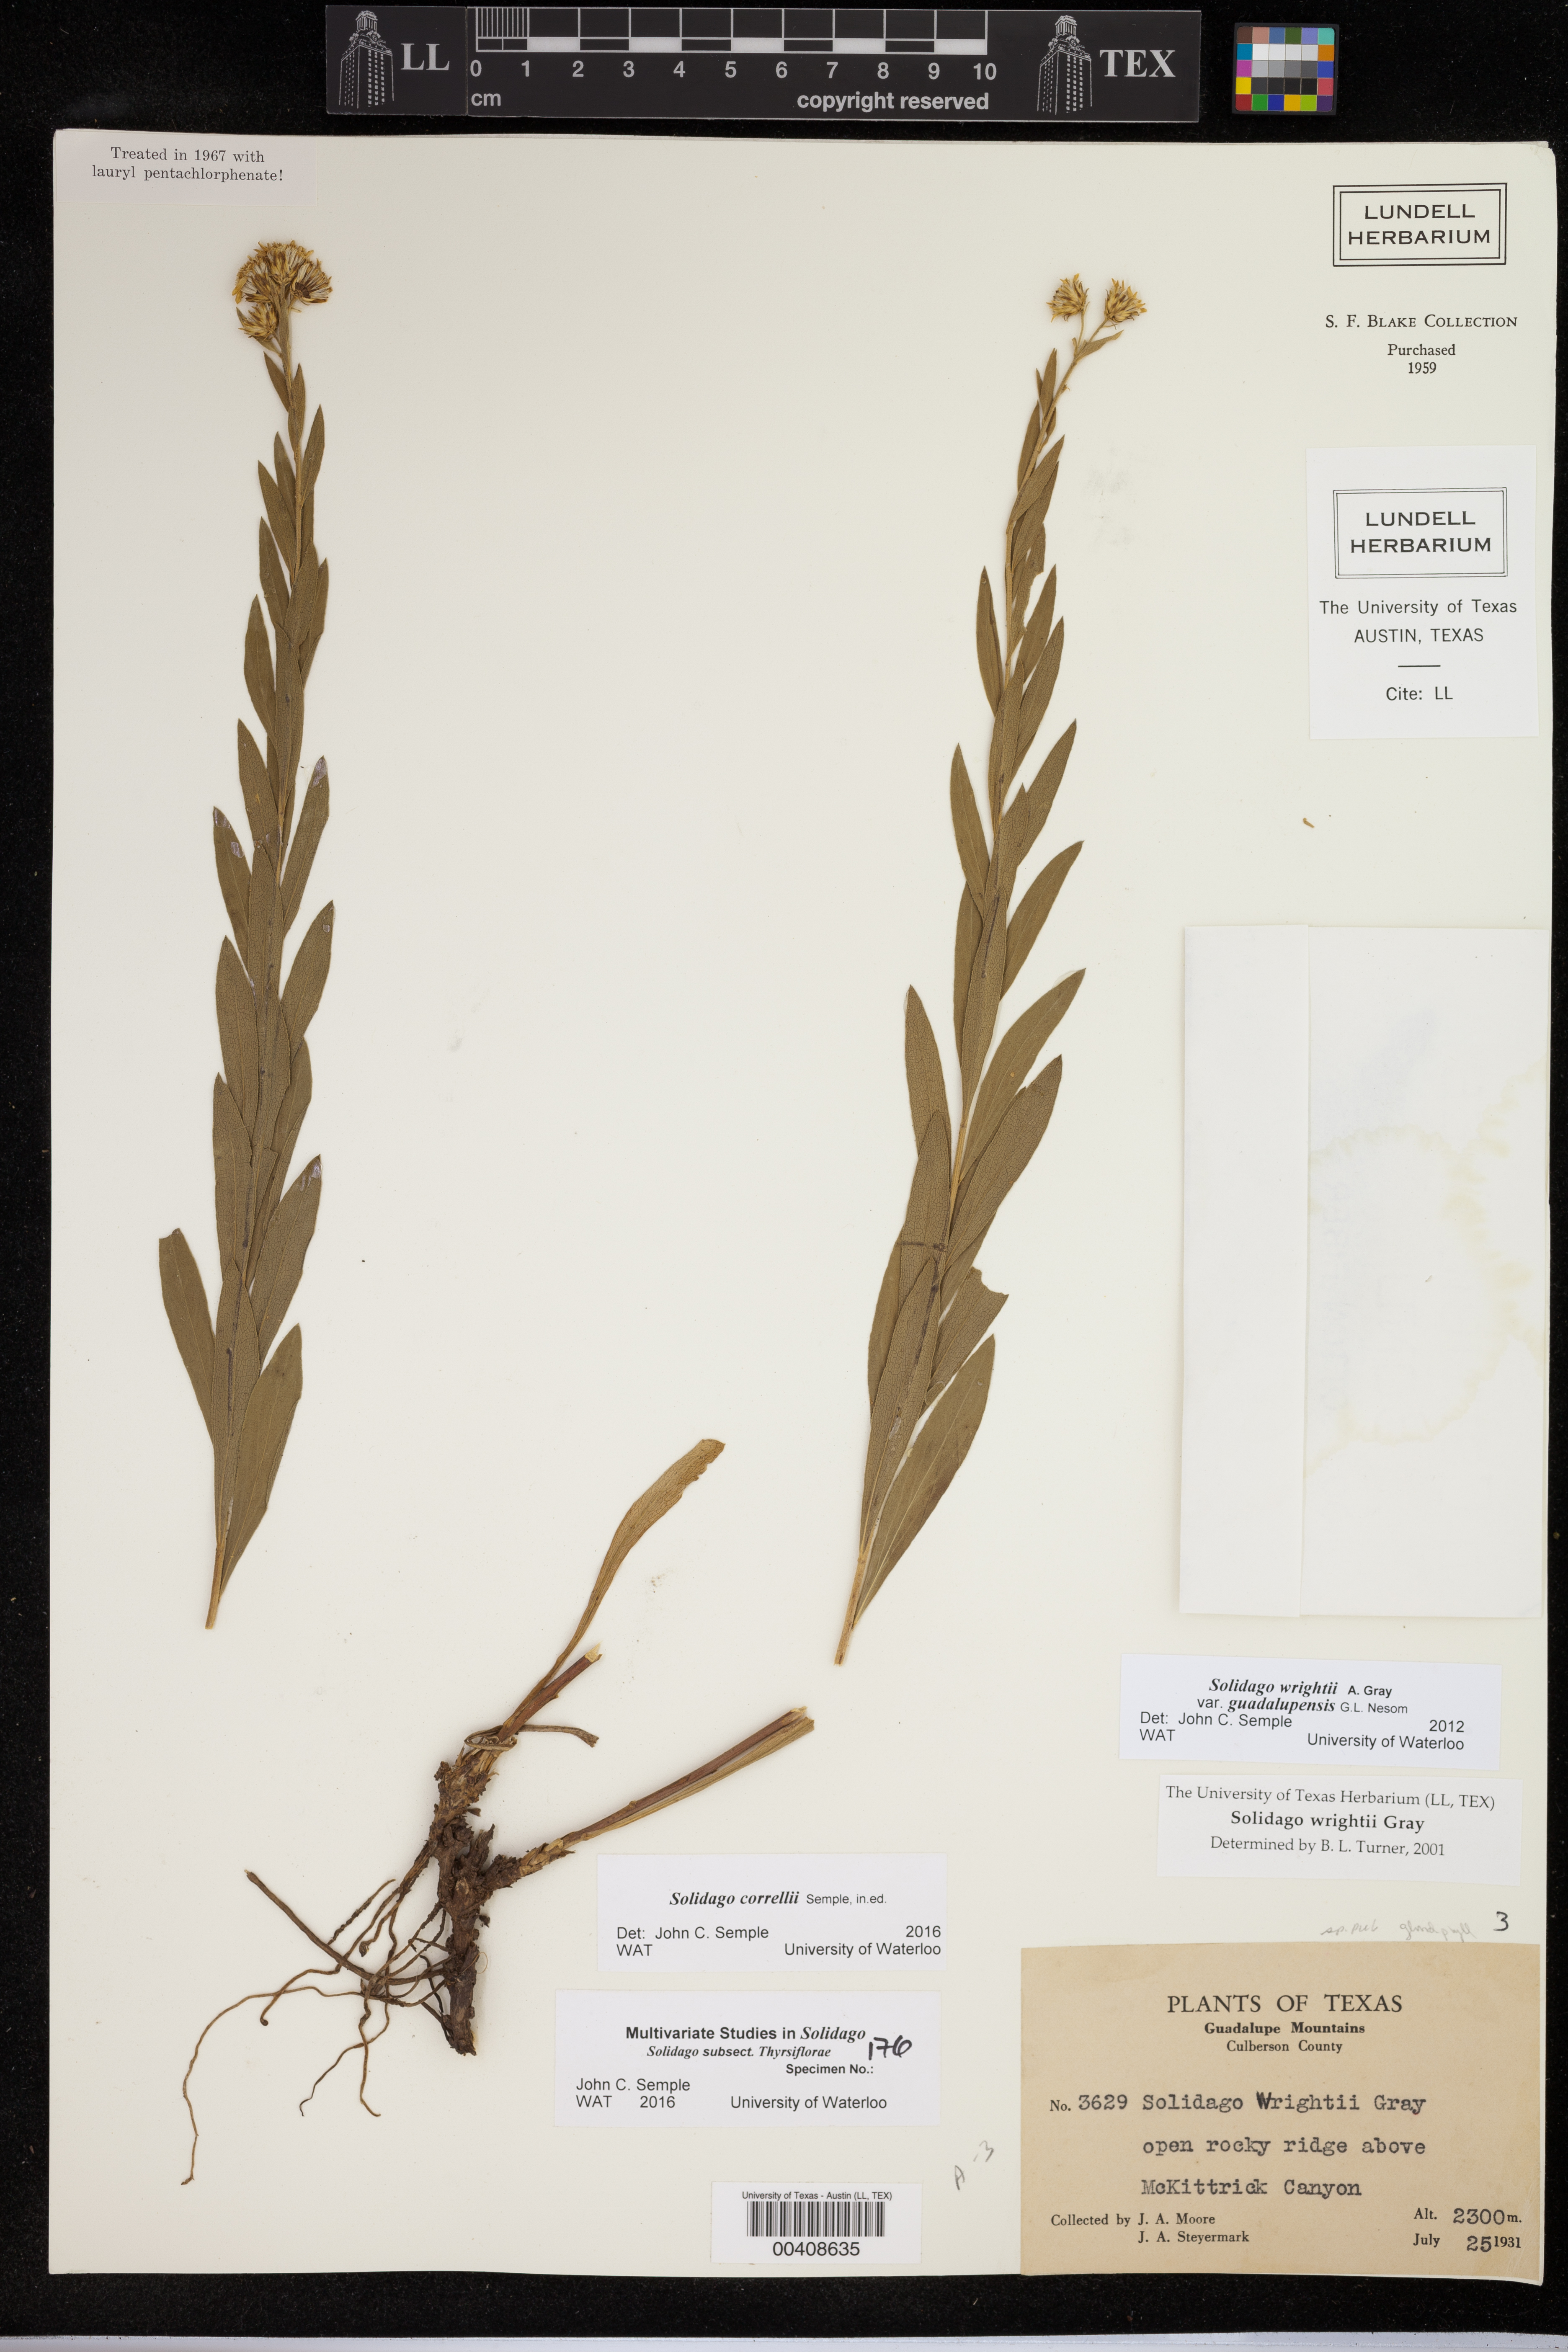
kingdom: Plantae
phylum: Tracheophyta
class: Magnoliopsida
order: Asterales
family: Asteraceae
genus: Solidago
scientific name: Solidago correllii
